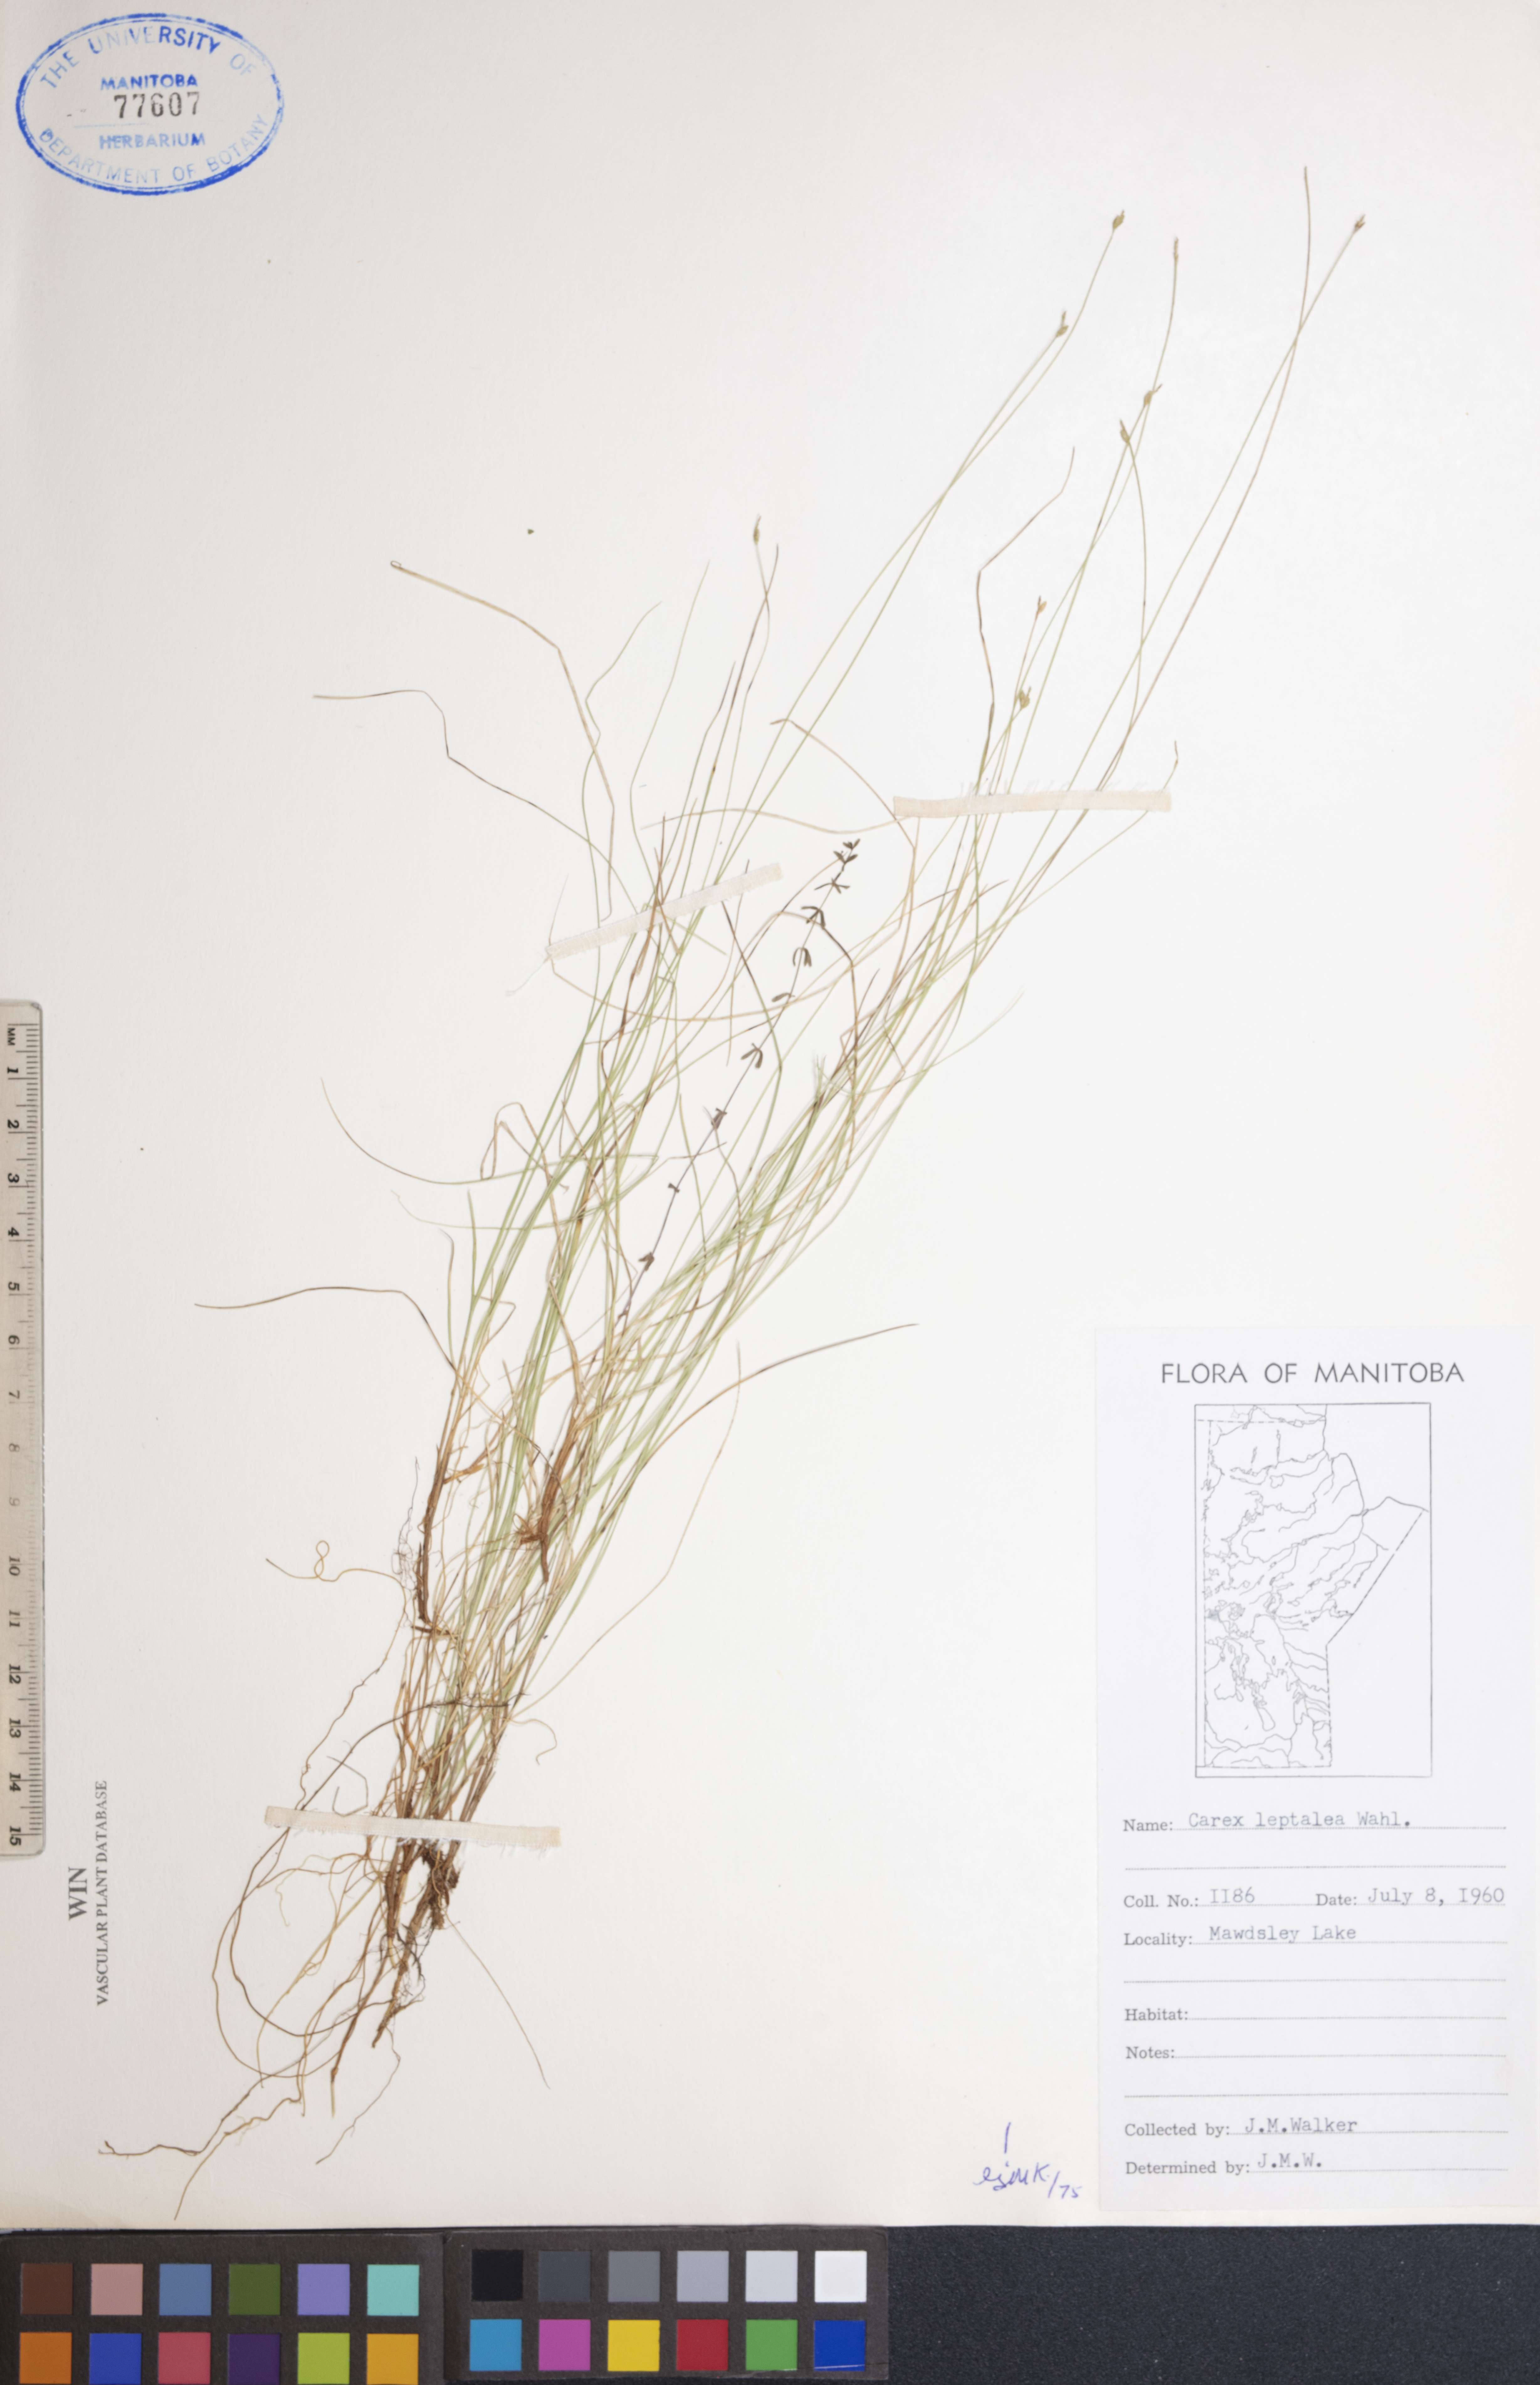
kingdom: Plantae
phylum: Tracheophyta
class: Liliopsida
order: Poales
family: Cyperaceae
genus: Carex
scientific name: Carex leptalea
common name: Bristly-stalked sedge
